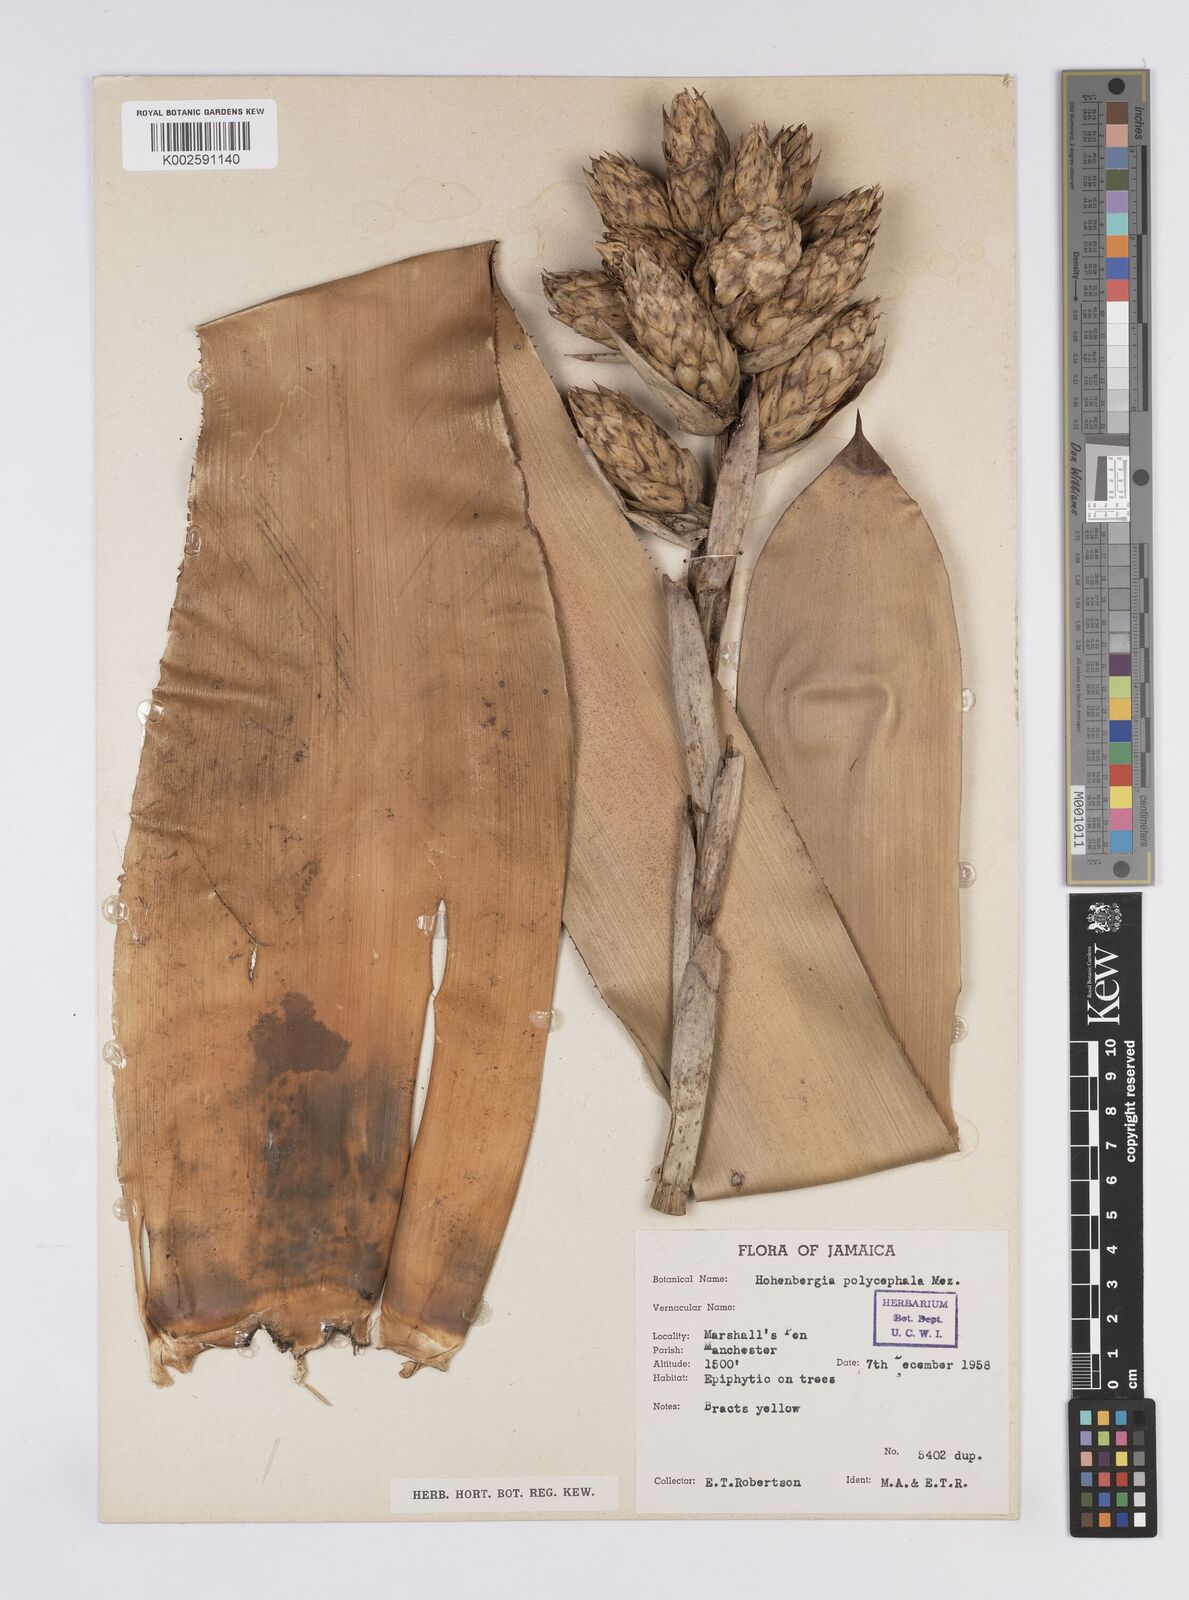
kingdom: Plantae
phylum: Tracheophyta
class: Liliopsida
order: Poales
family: Bromeliaceae
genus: Wittmackia
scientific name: Wittmackia polycephala
